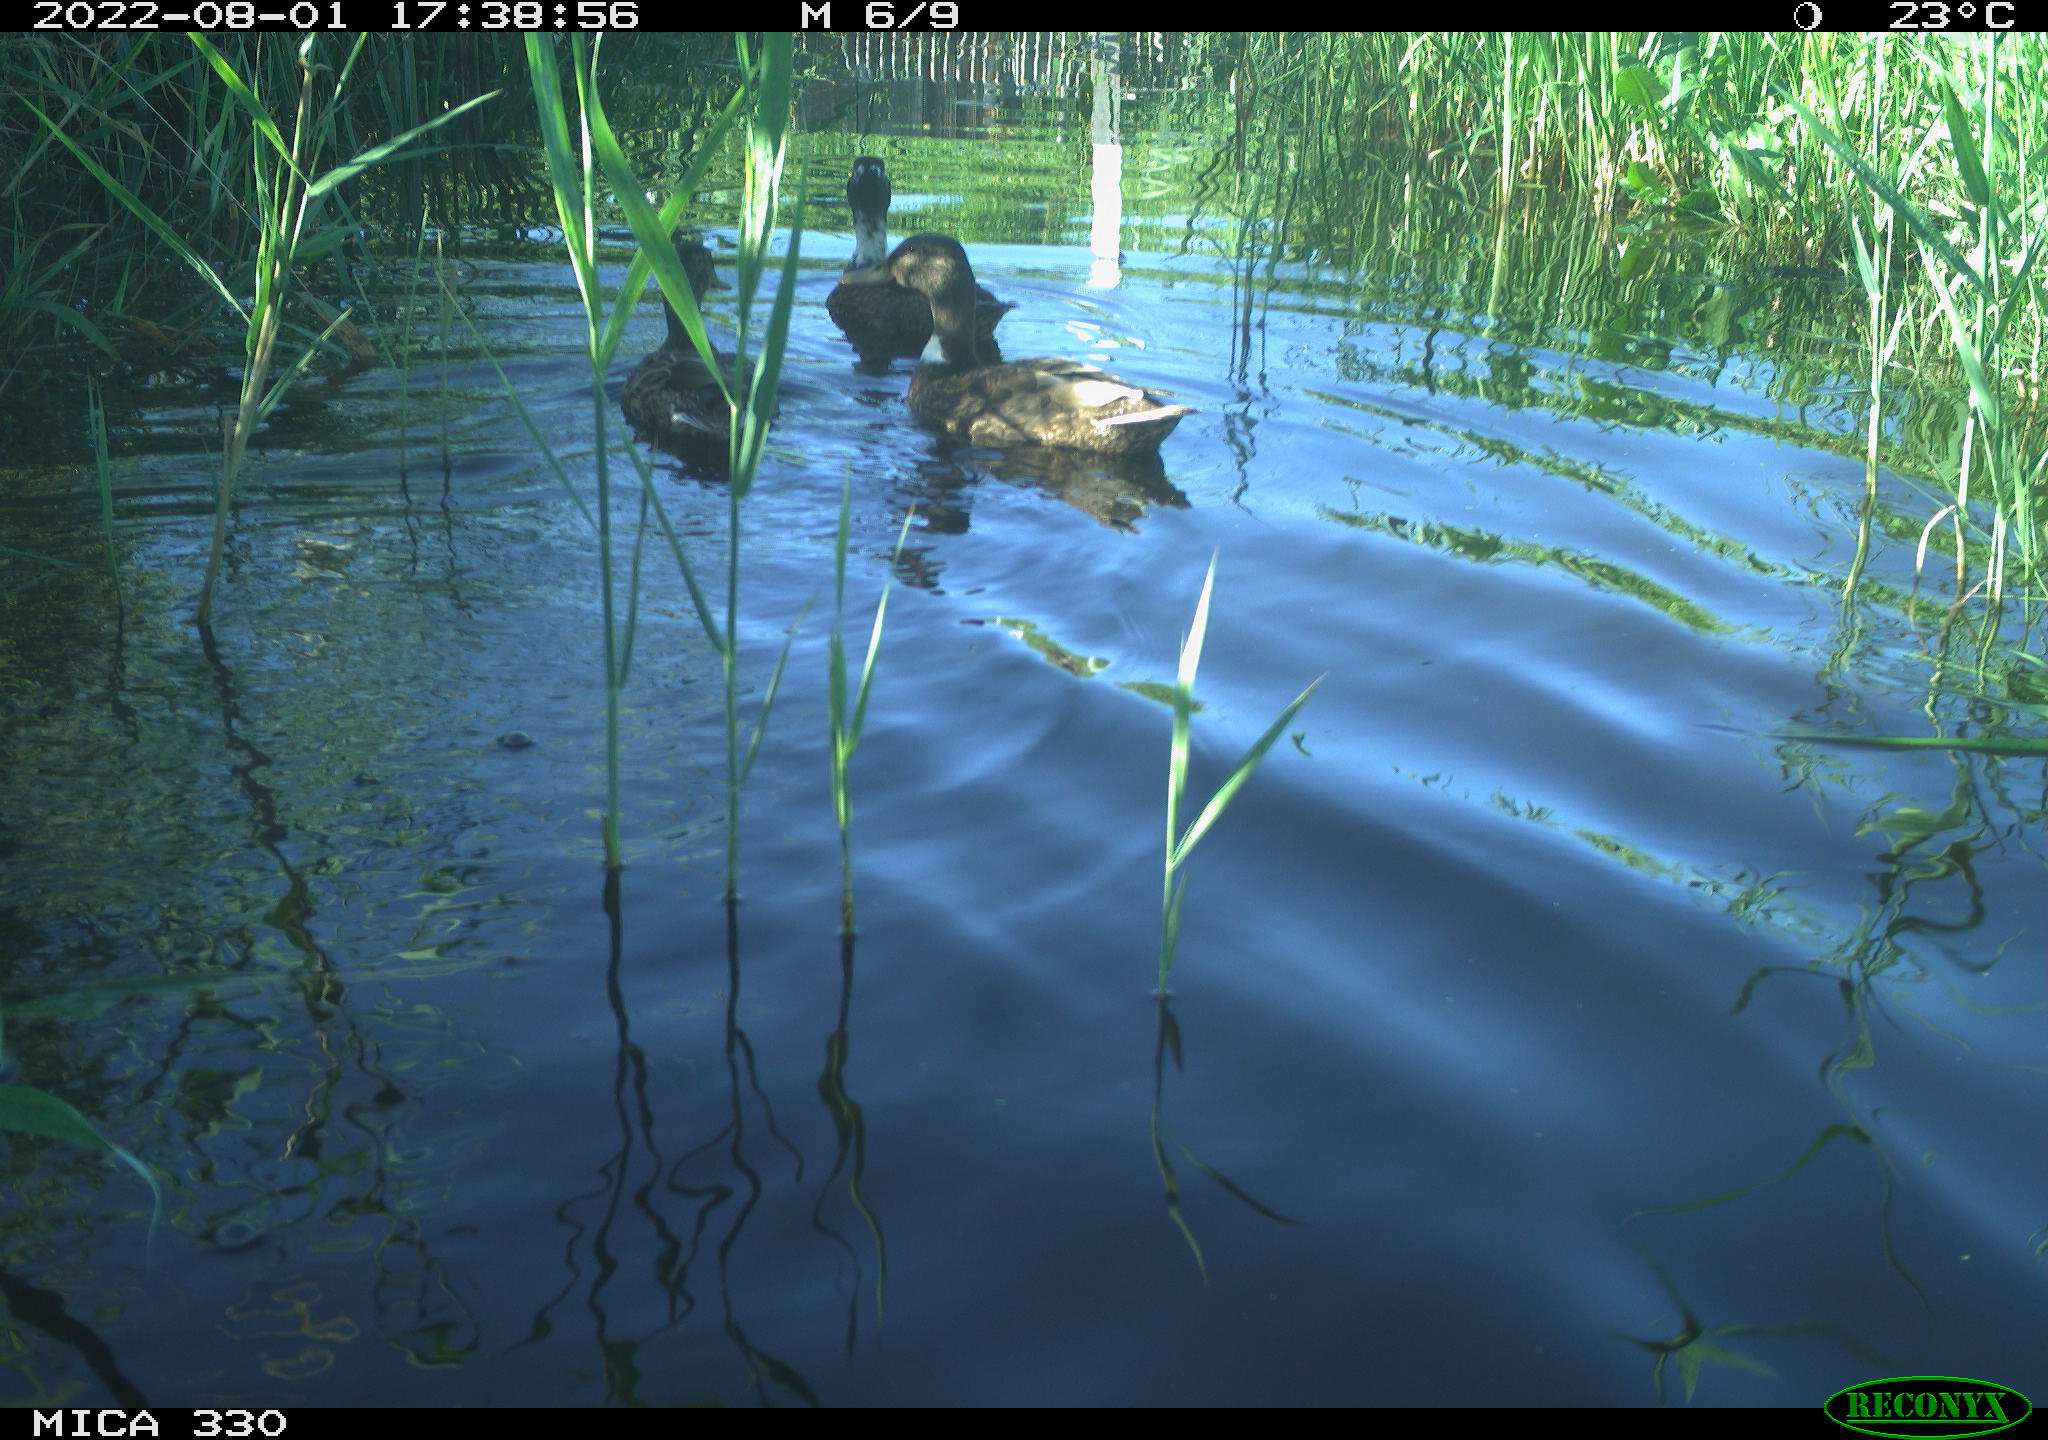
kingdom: Animalia
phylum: Chordata
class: Aves
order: Anseriformes
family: Anatidae
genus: Mareca
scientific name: Mareca strepera
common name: Gadwall
